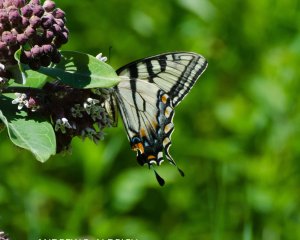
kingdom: Animalia
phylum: Arthropoda
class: Insecta
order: Lepidoptera
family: Papilionidae
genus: Pterourus
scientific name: Pterourus canadensis
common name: Canadian Tiger Swallowtail
